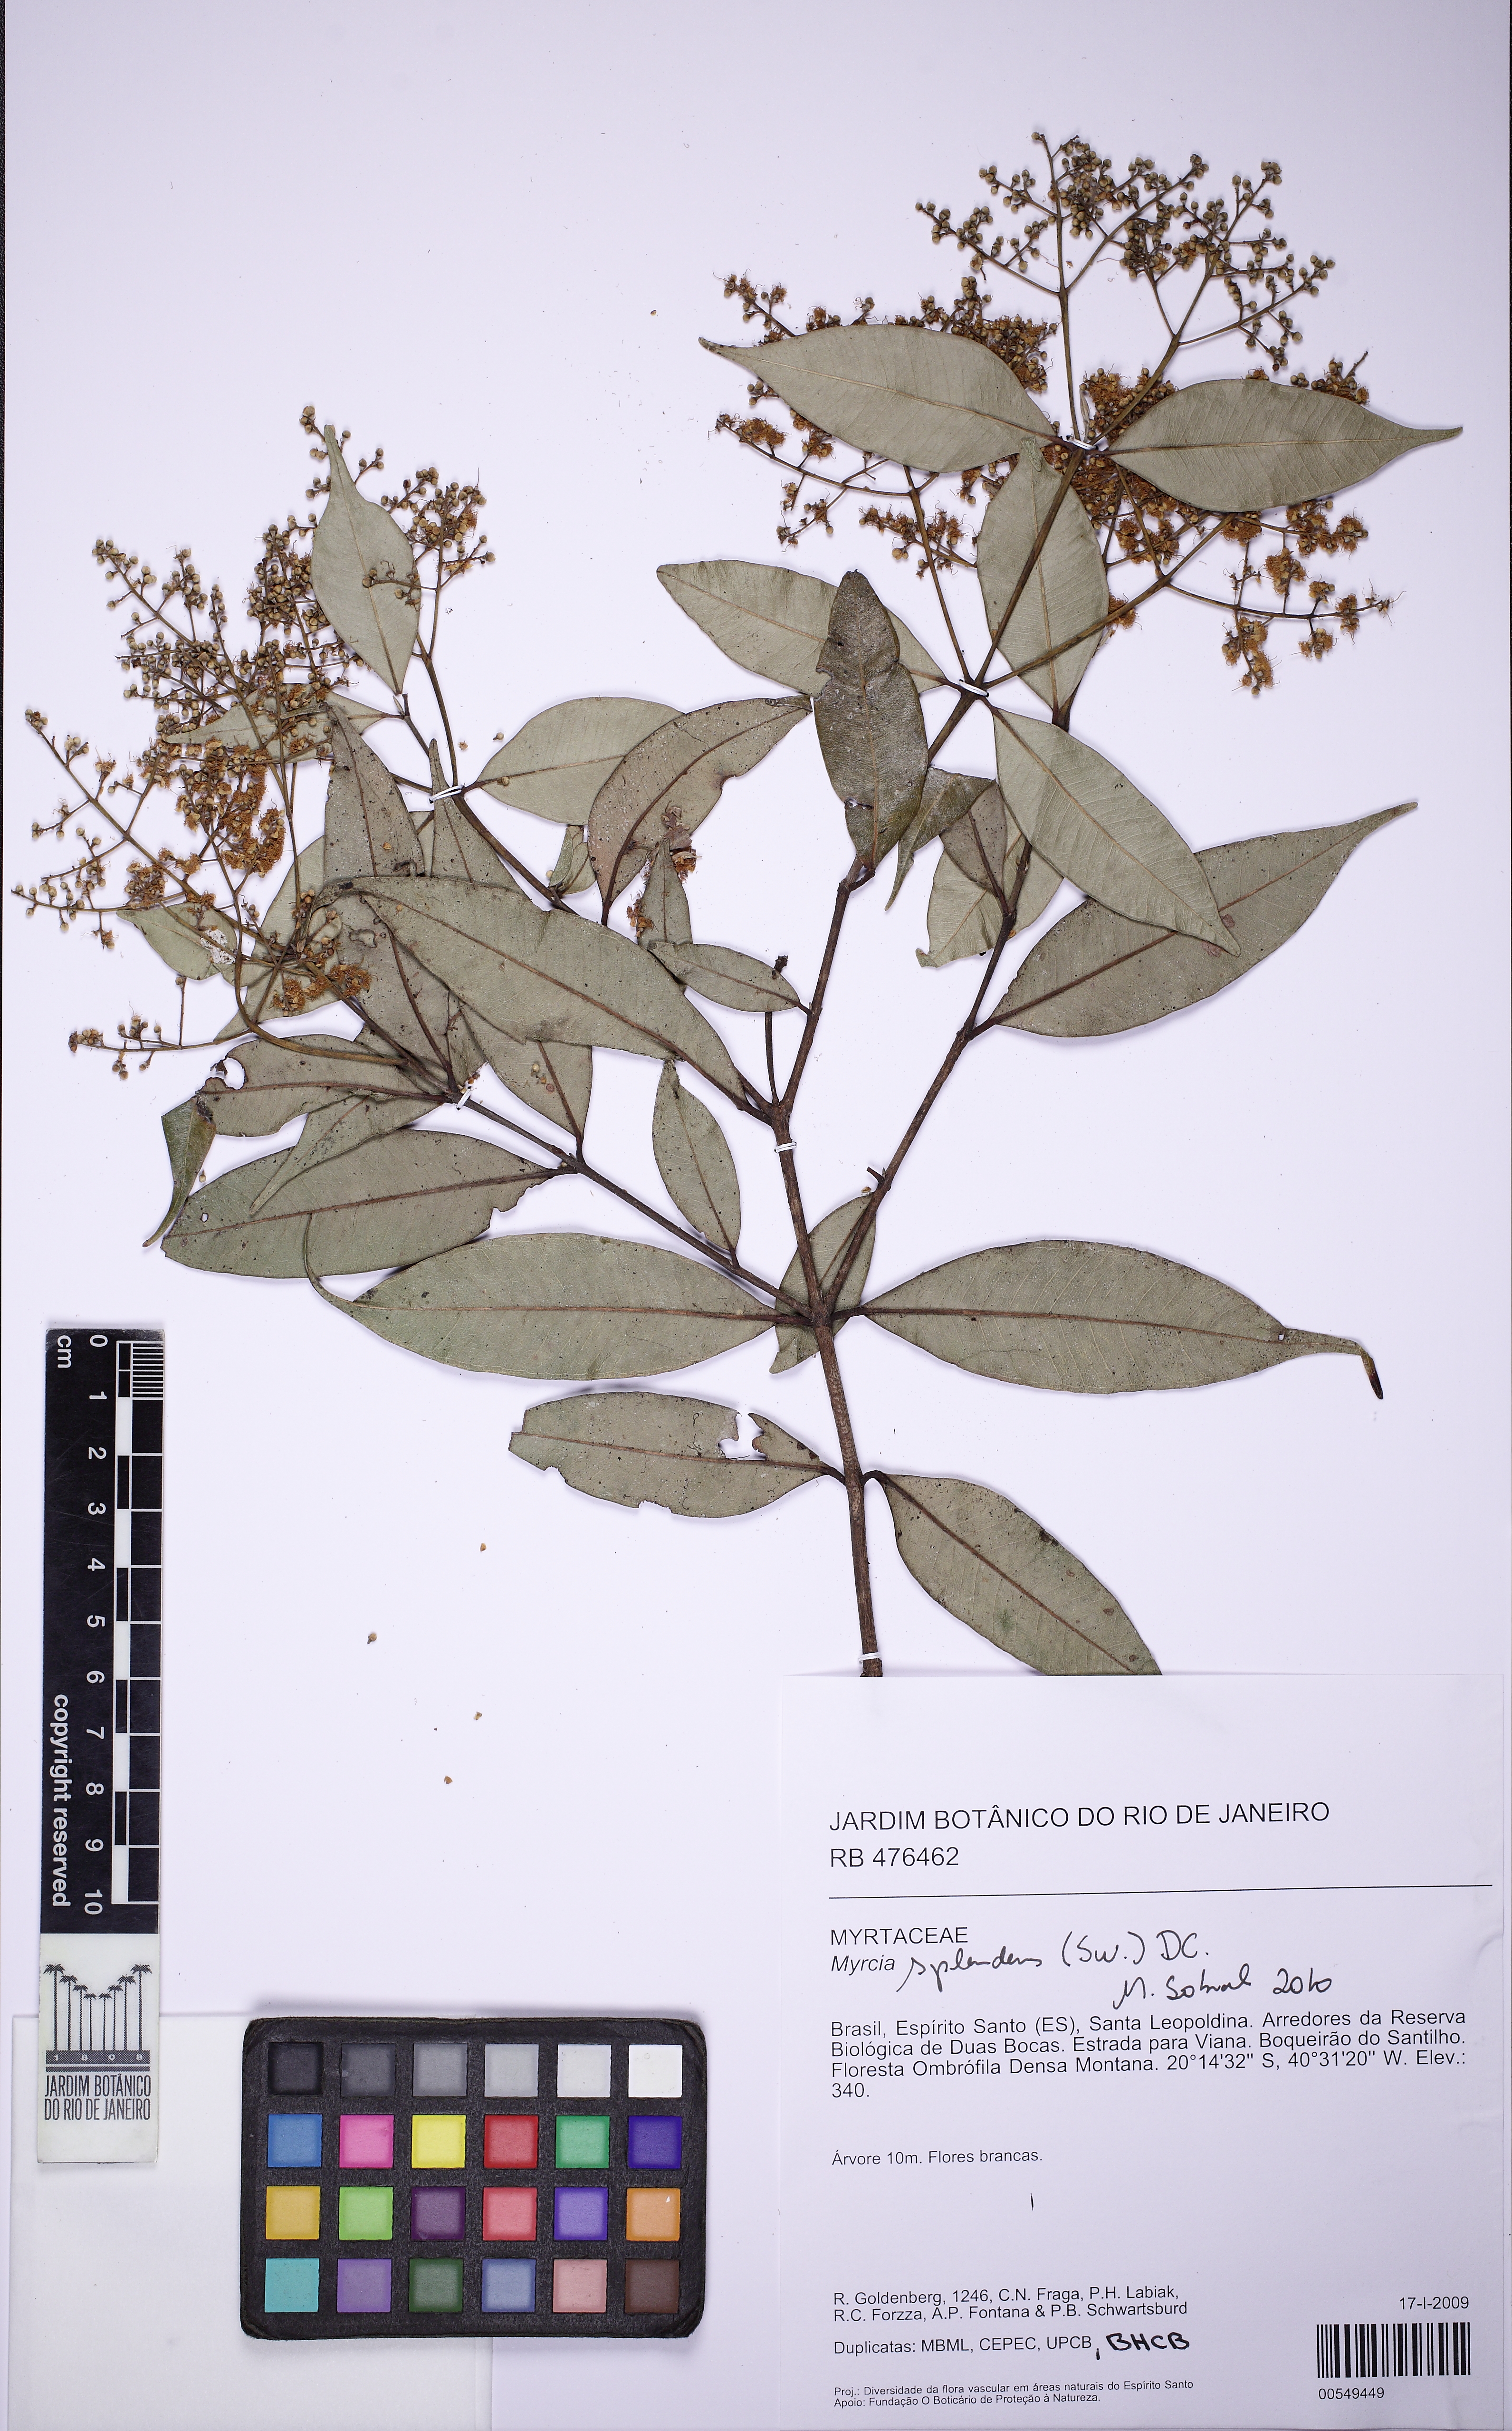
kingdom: Plantae
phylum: Tracheophyta
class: Magnoliopsida
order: Myrtales
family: Myrtaceae
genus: Myrcia
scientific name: Myrcia splendens
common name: Surinam cherry
